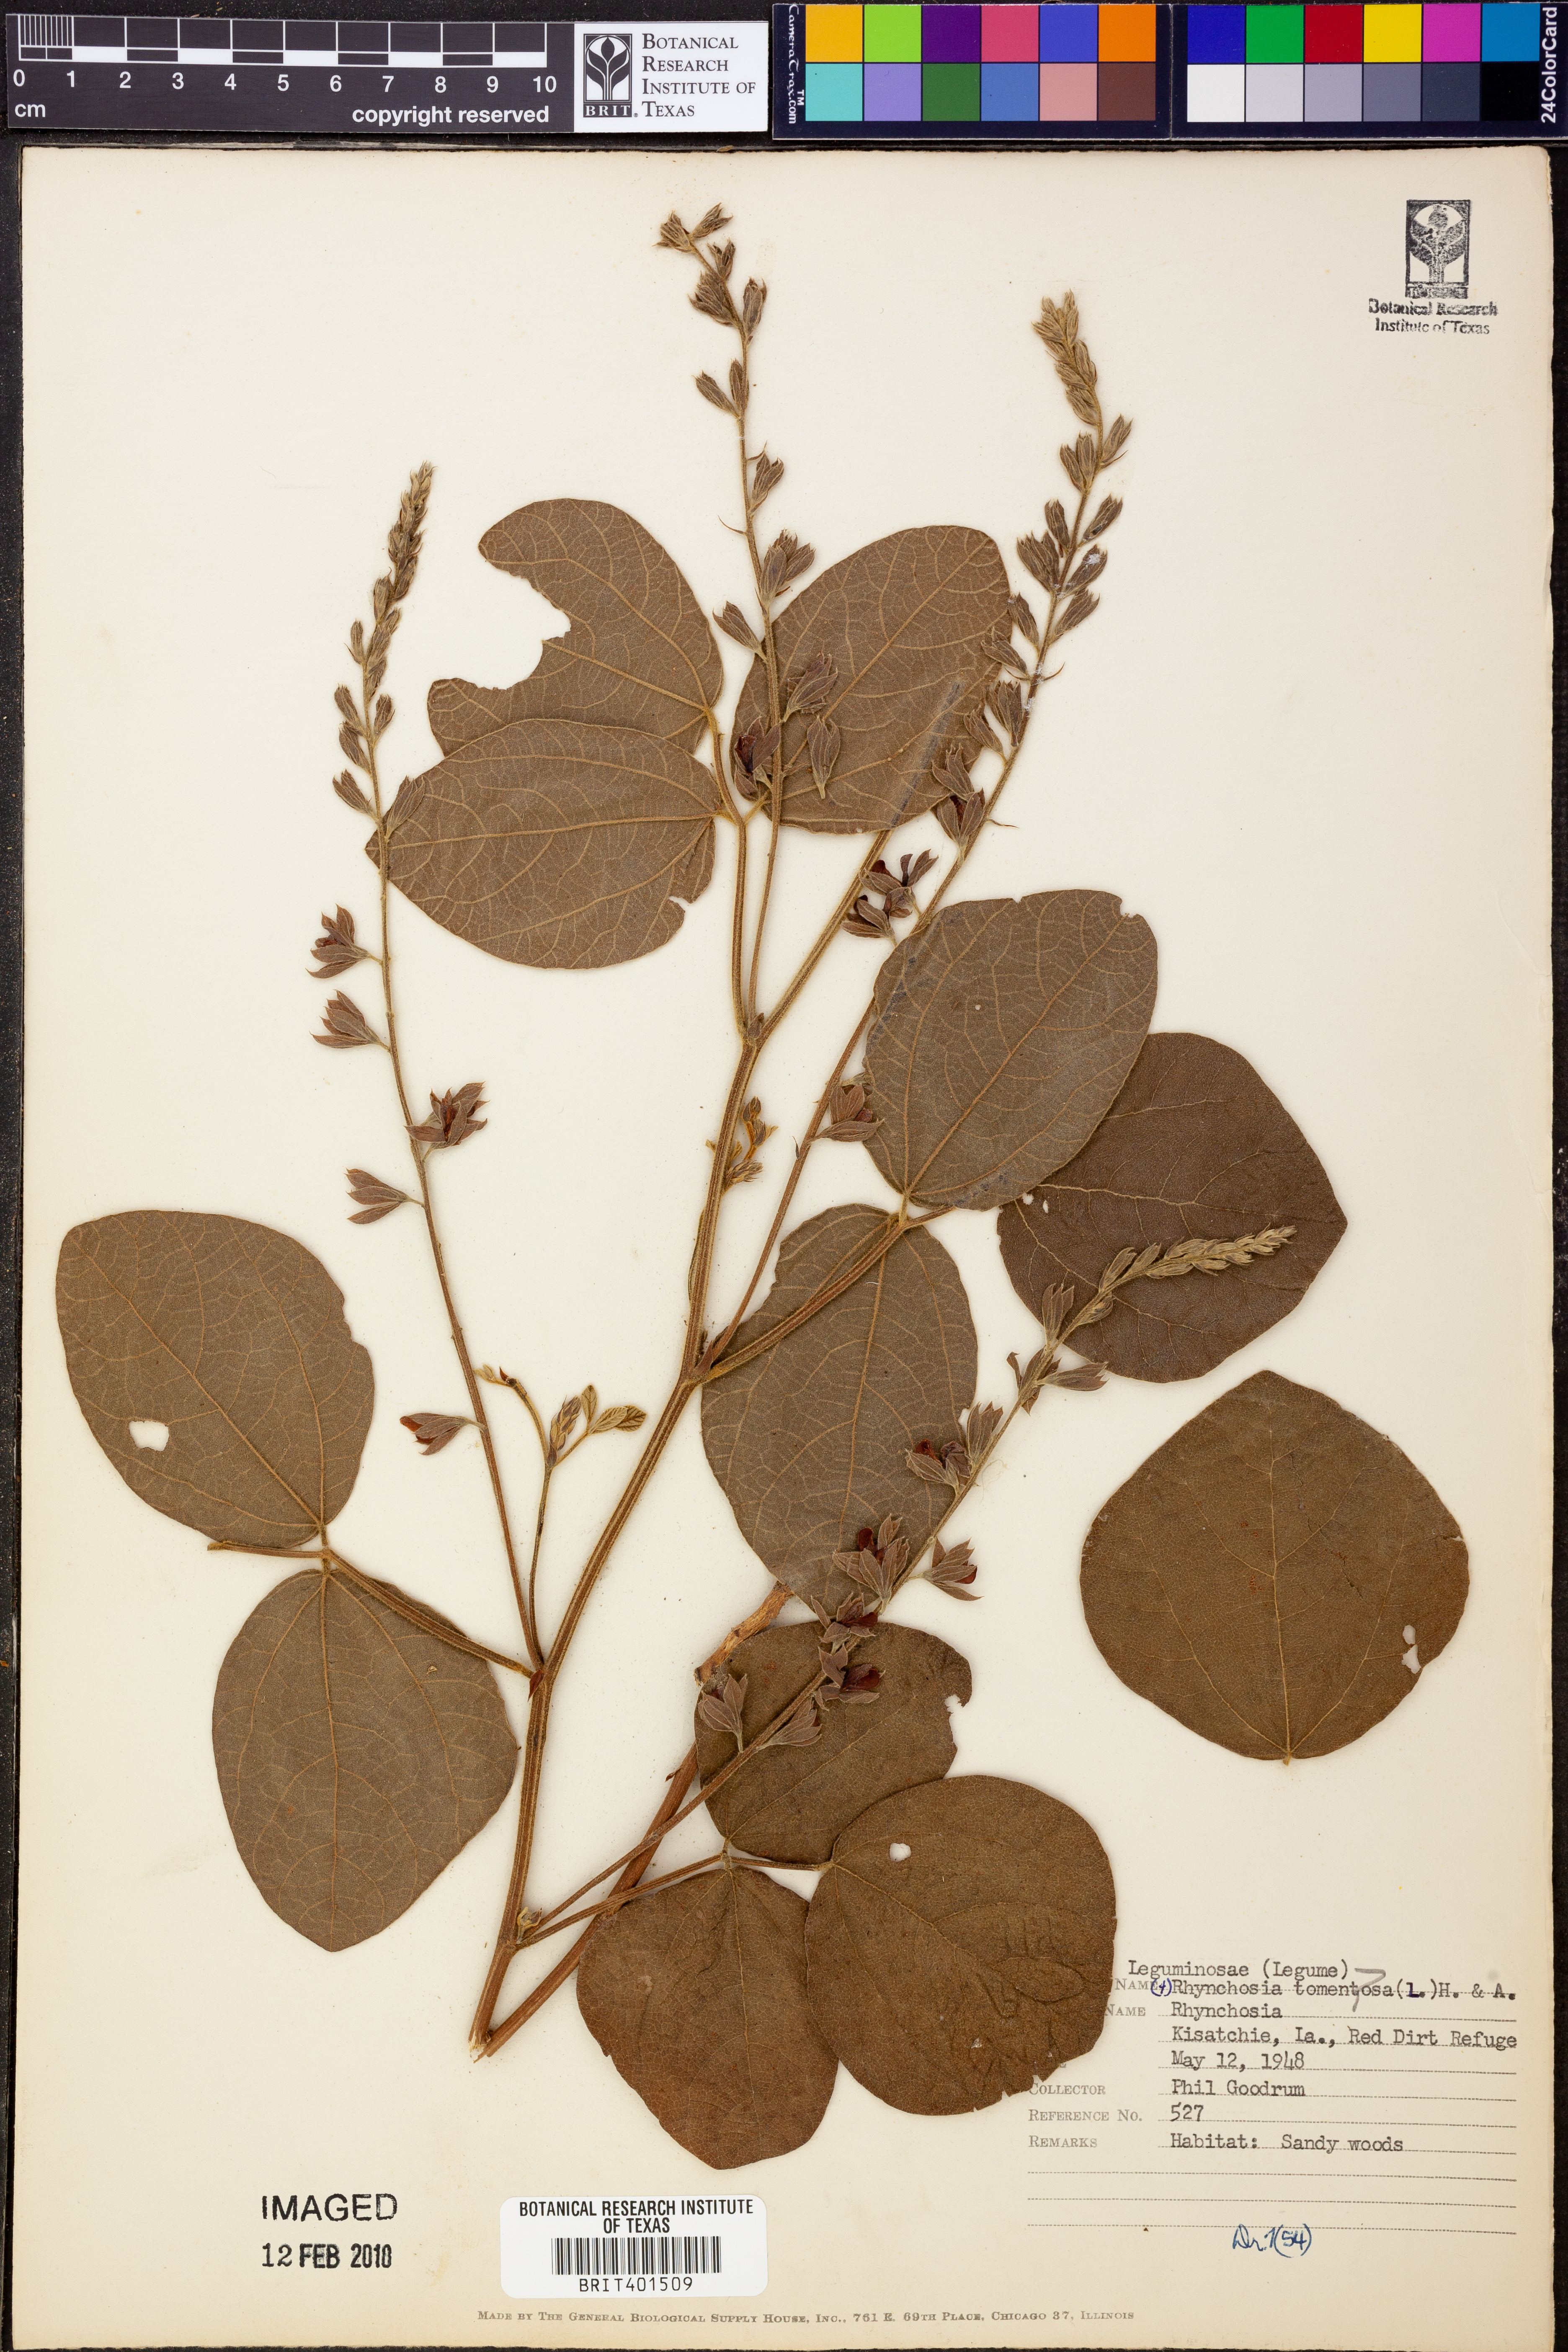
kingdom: Plantae
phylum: Tracheophyta
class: Magnoliopsida
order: Fabales
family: Fabaceae
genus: Rhynchosia
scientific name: Rhynchosia rothii
